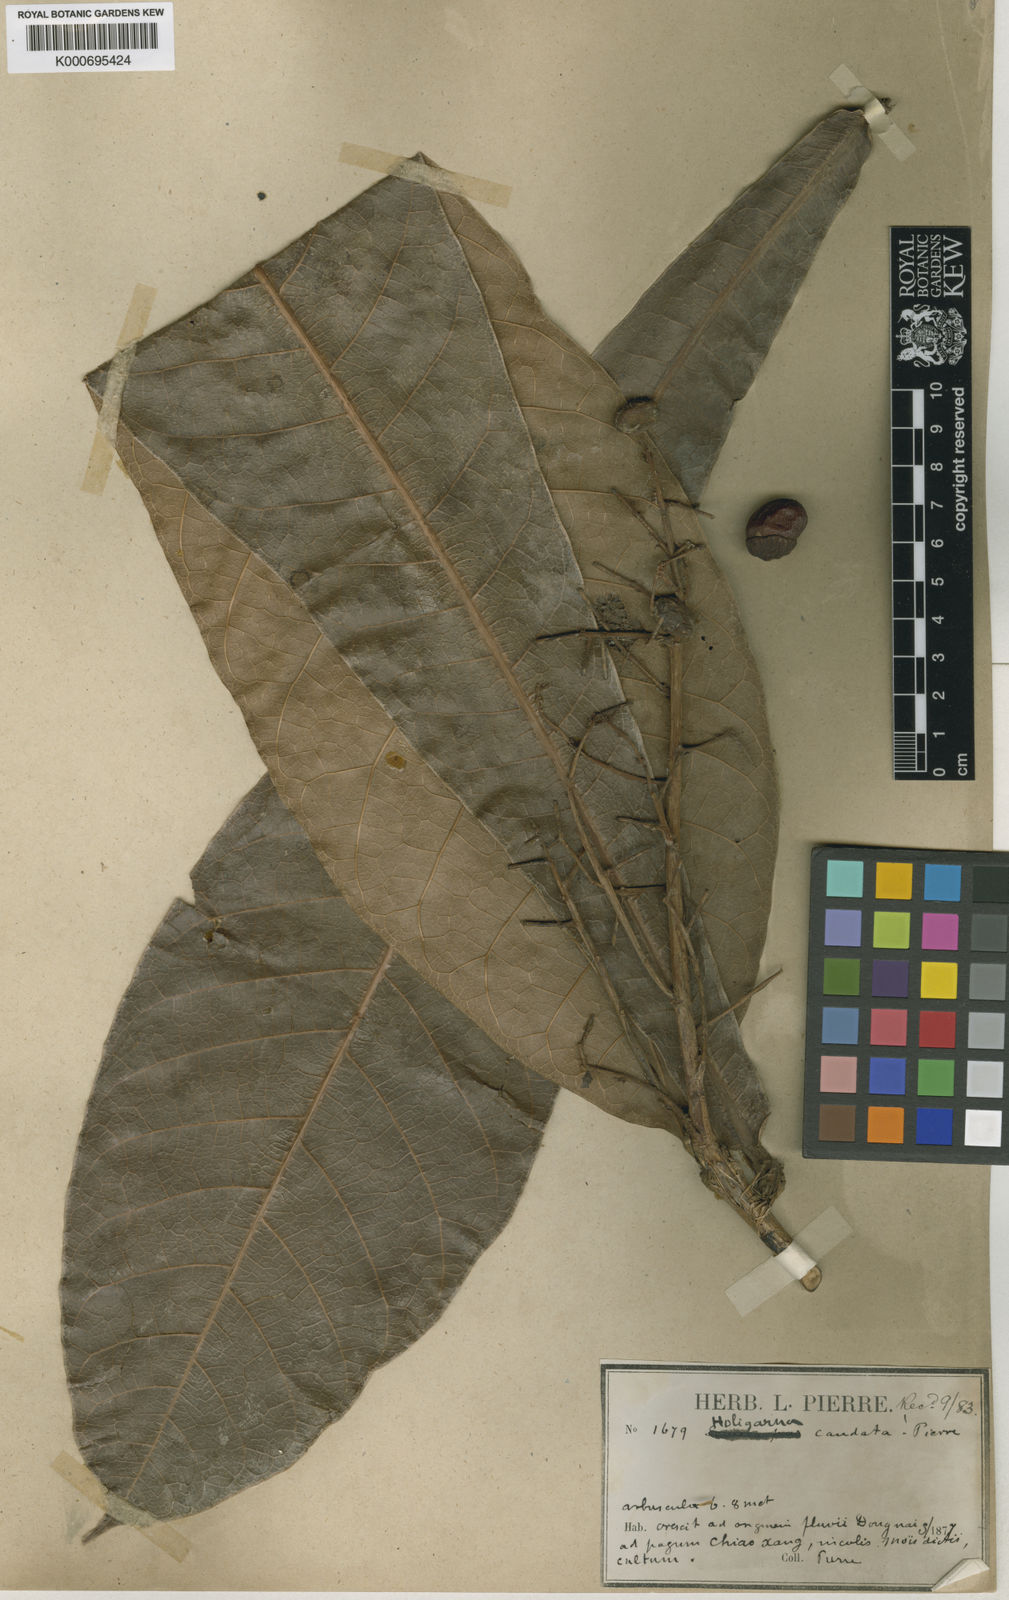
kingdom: Plantae
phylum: Tracheophyta
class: Magnoliopsida
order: Sapindales
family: Anacardiaceae
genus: Semecarpus
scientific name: Semecarpus caudatus
